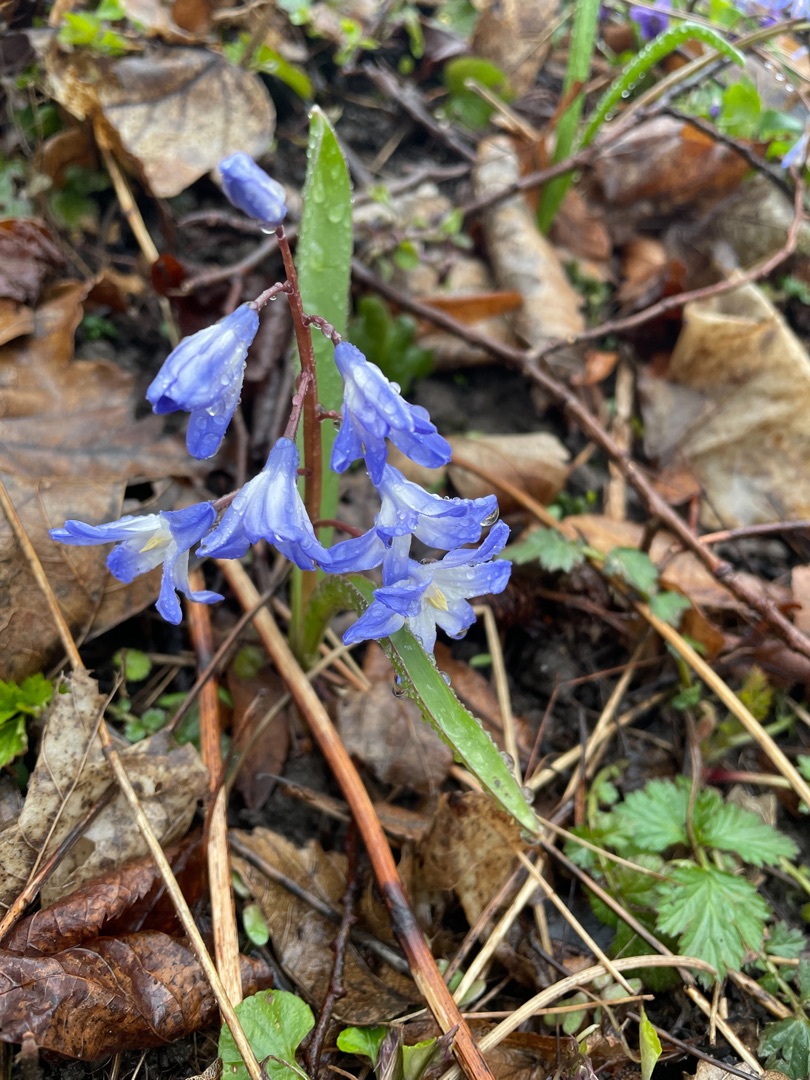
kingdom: Plantae
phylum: Tracheophyta
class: Liliopsida
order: Asparagales
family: Asparagaceae
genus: Scilla
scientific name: Scilla forbesii
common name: Almindelig snepryd
